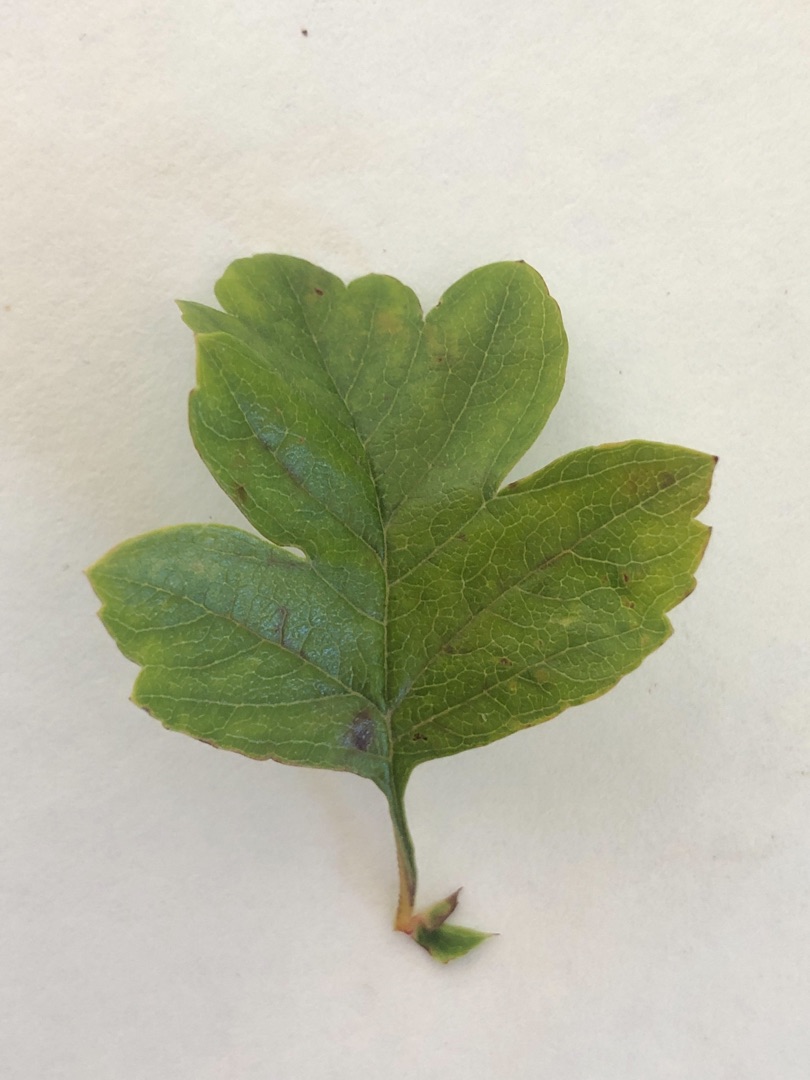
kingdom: Plantae
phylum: Tracheophyta
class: Magnoliopsida
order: Rosales
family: Rosaceae
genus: Crataegus
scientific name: Crataegus monogyna
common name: Engriflet hvidtjørn
